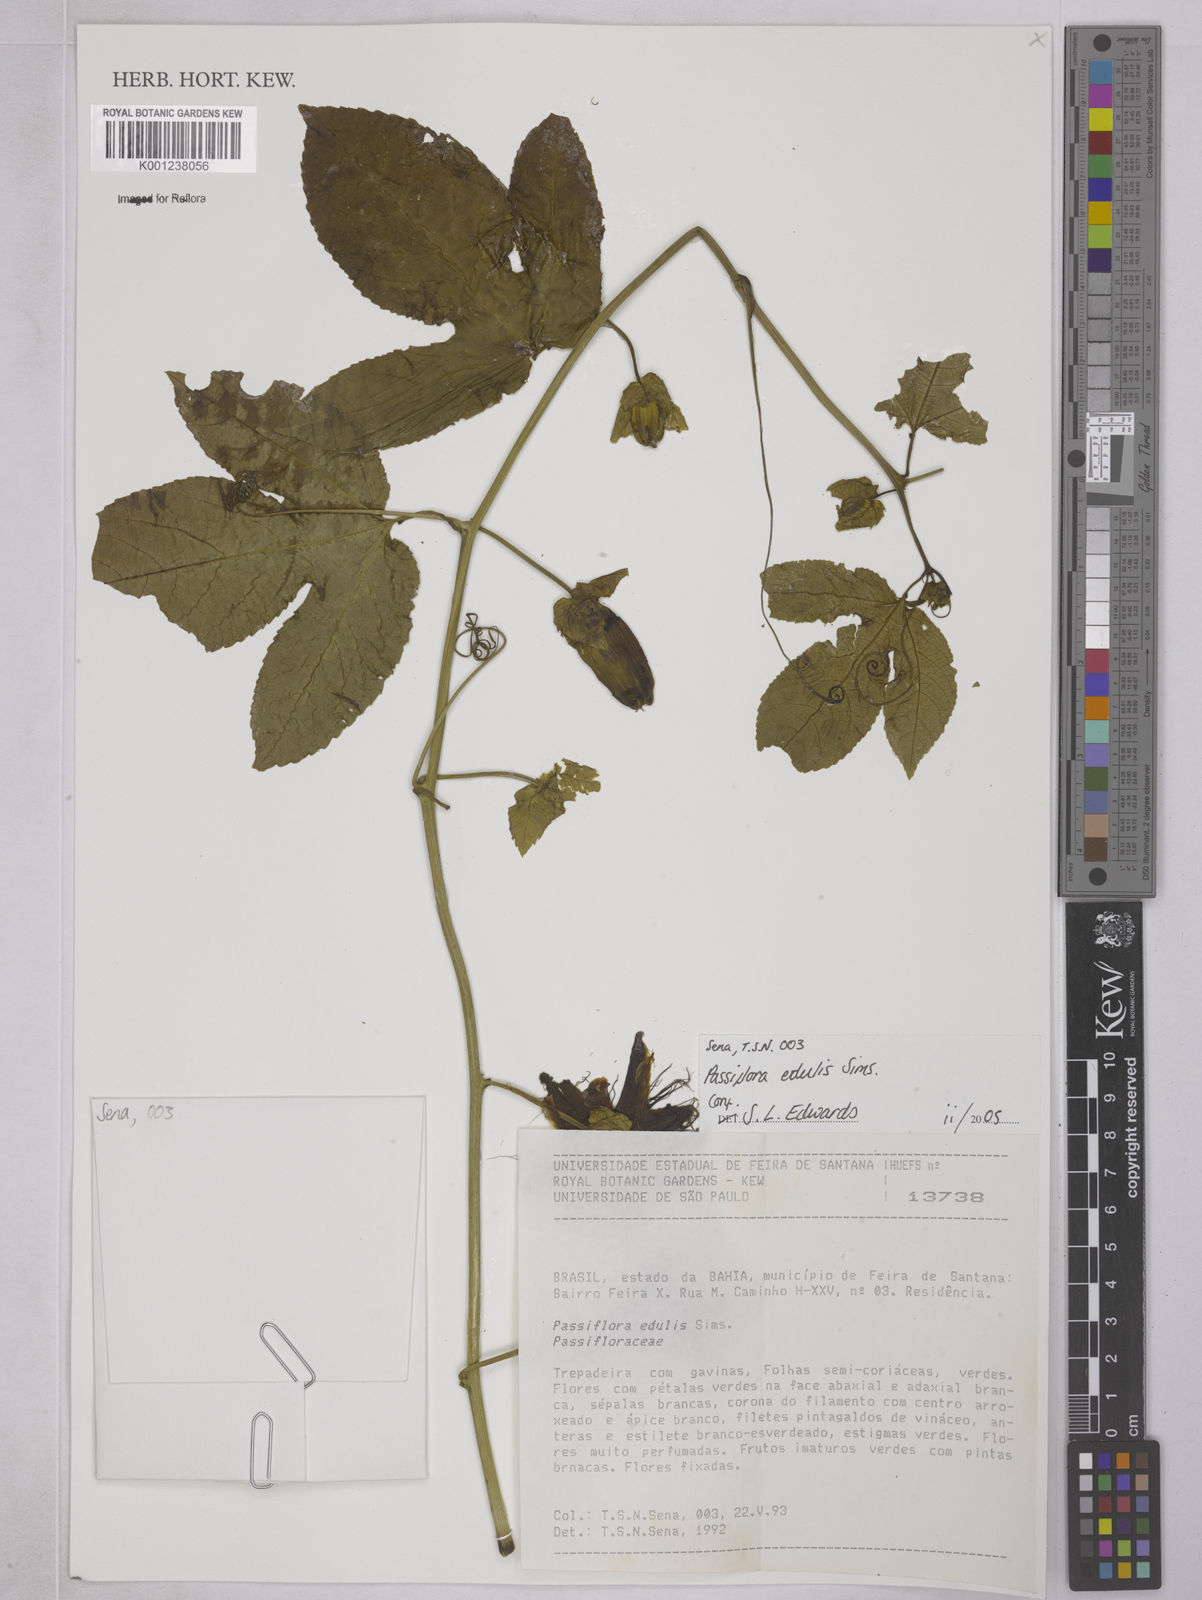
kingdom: Plantae
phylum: Tracheophyta
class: Magnoliopsida
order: Malpighiales
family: Passifloraceae
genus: Passiflora
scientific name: Passiflora edulis
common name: Purple granadilla
